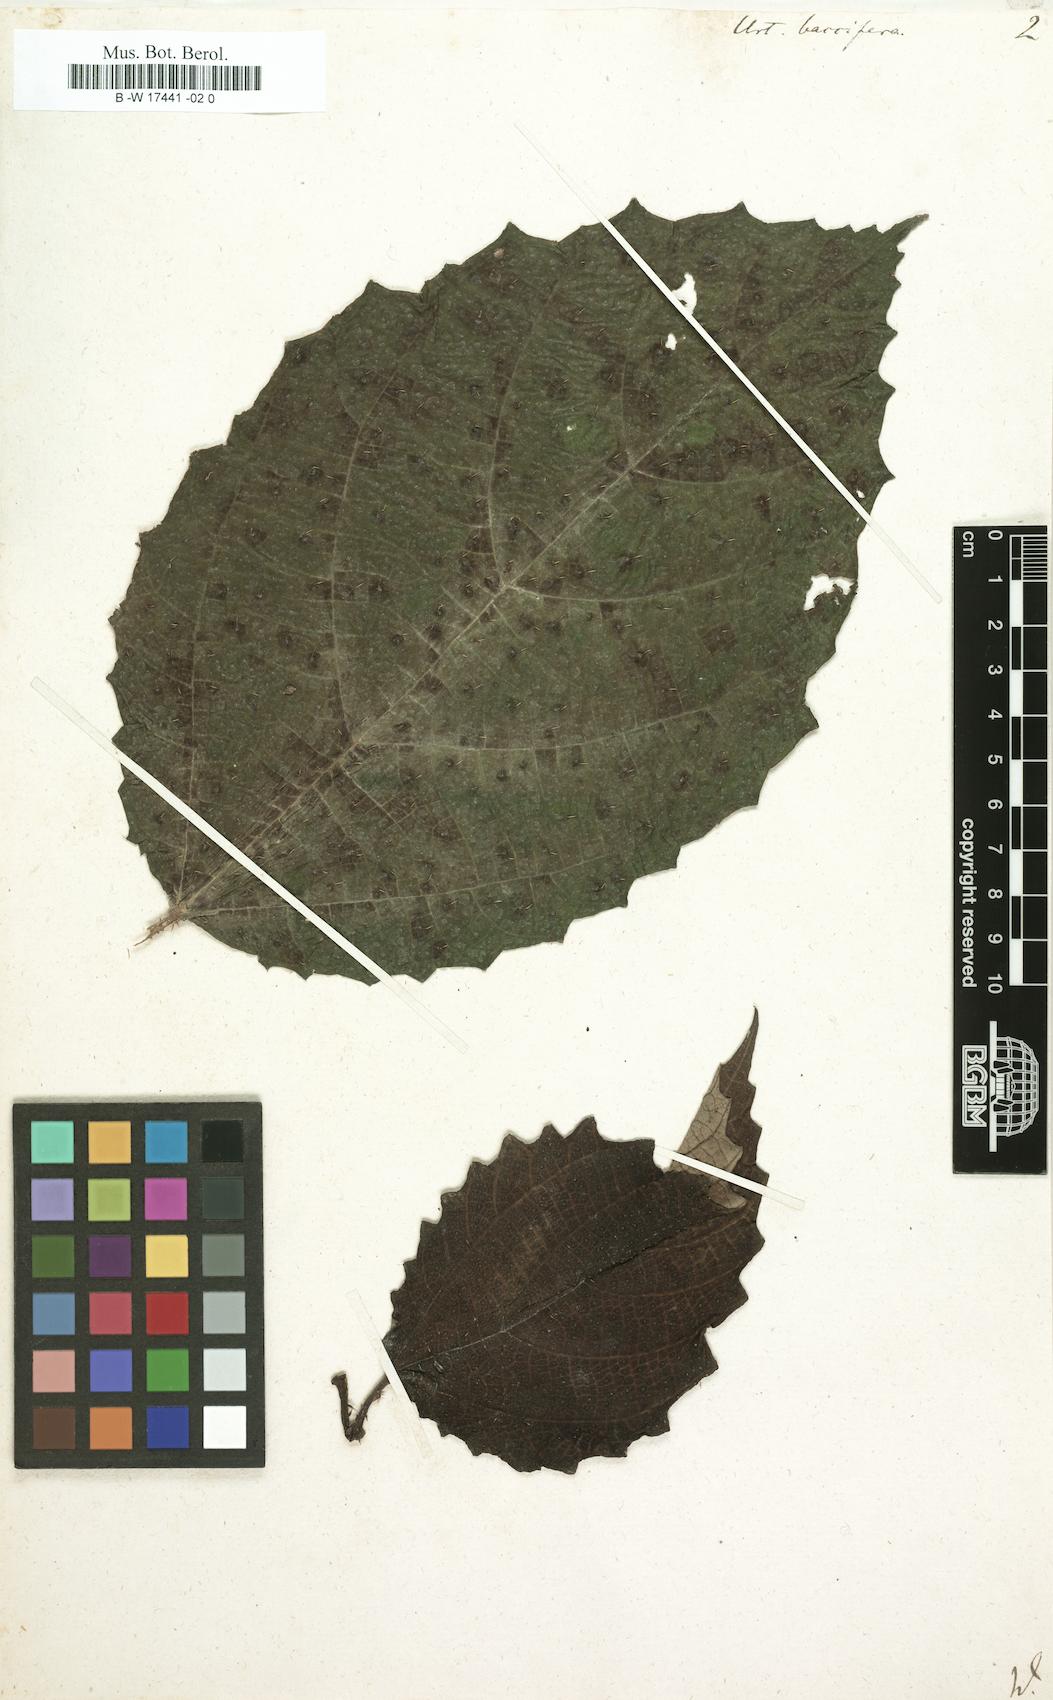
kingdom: Plantae
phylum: Tracheophyta
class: Magnoliopsida
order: Rosales
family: Urticaceae
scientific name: Urticaceae
